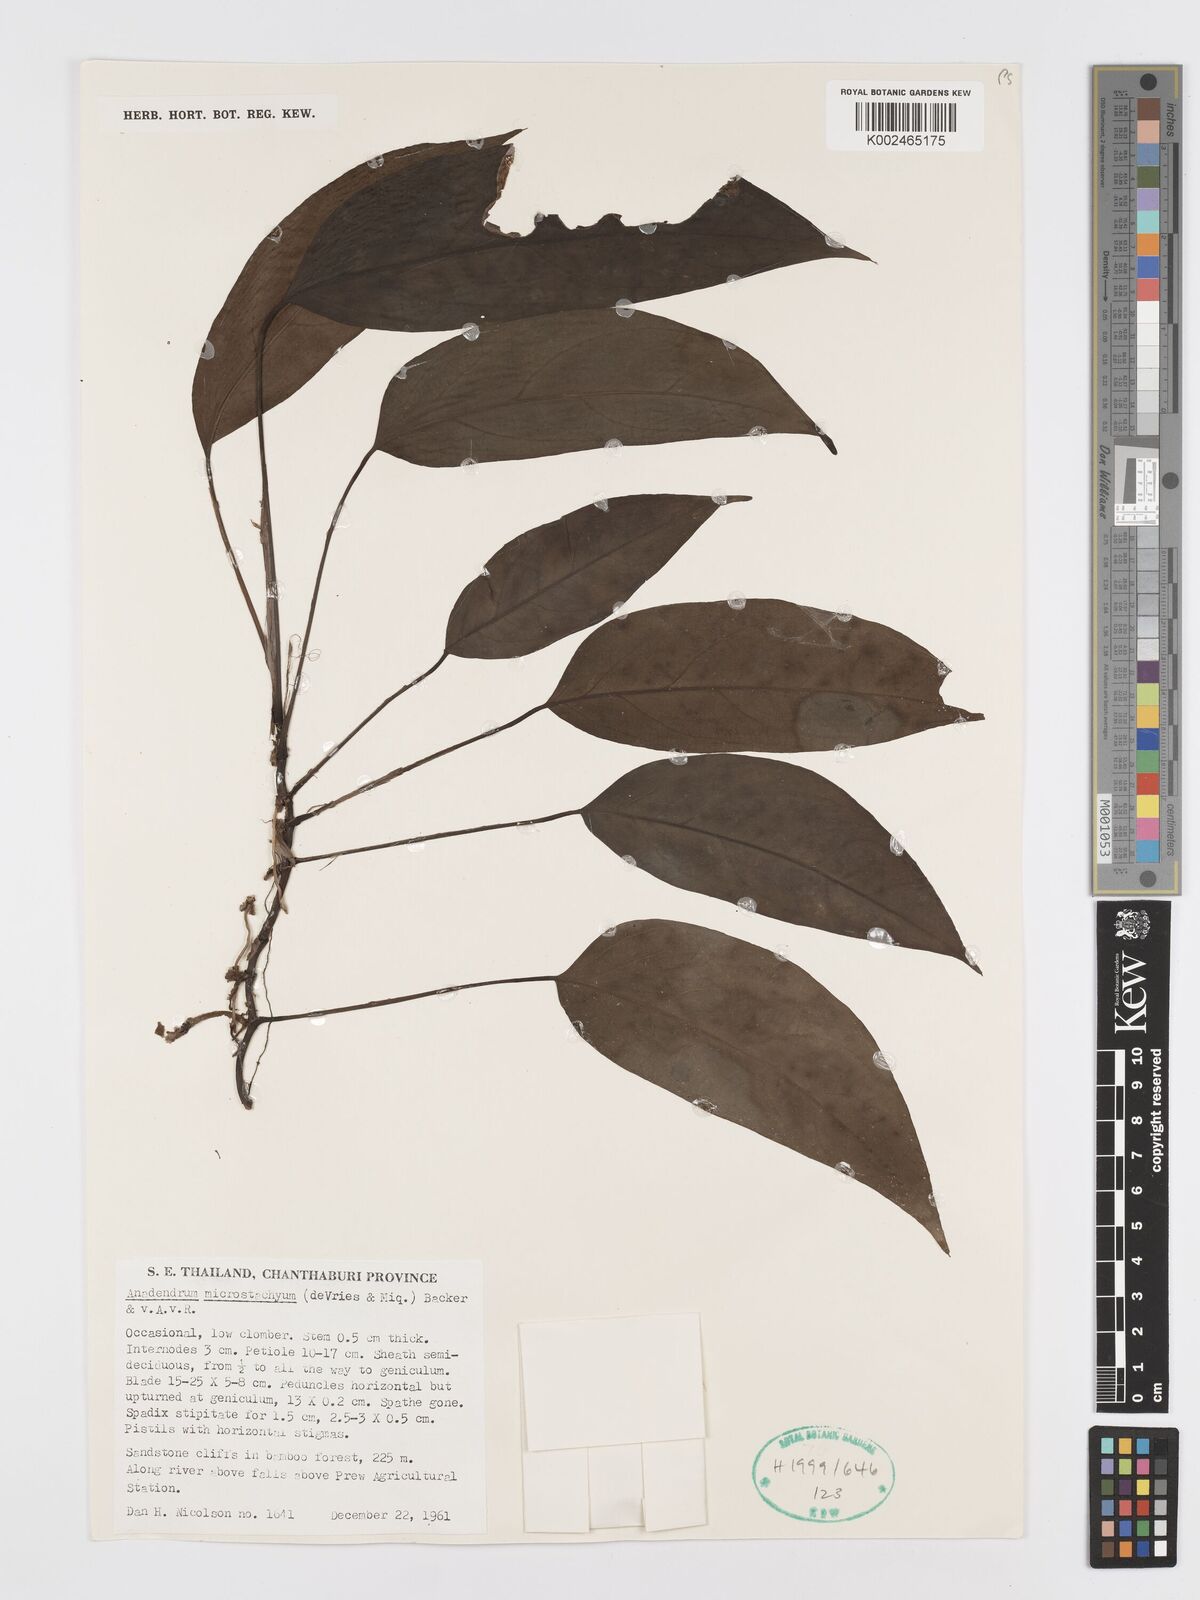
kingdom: Plantae
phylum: Tracheophyta
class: Liliopsida
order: Alismatales
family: Araceae
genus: Anadendrum
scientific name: Anadendrum microstachyum
